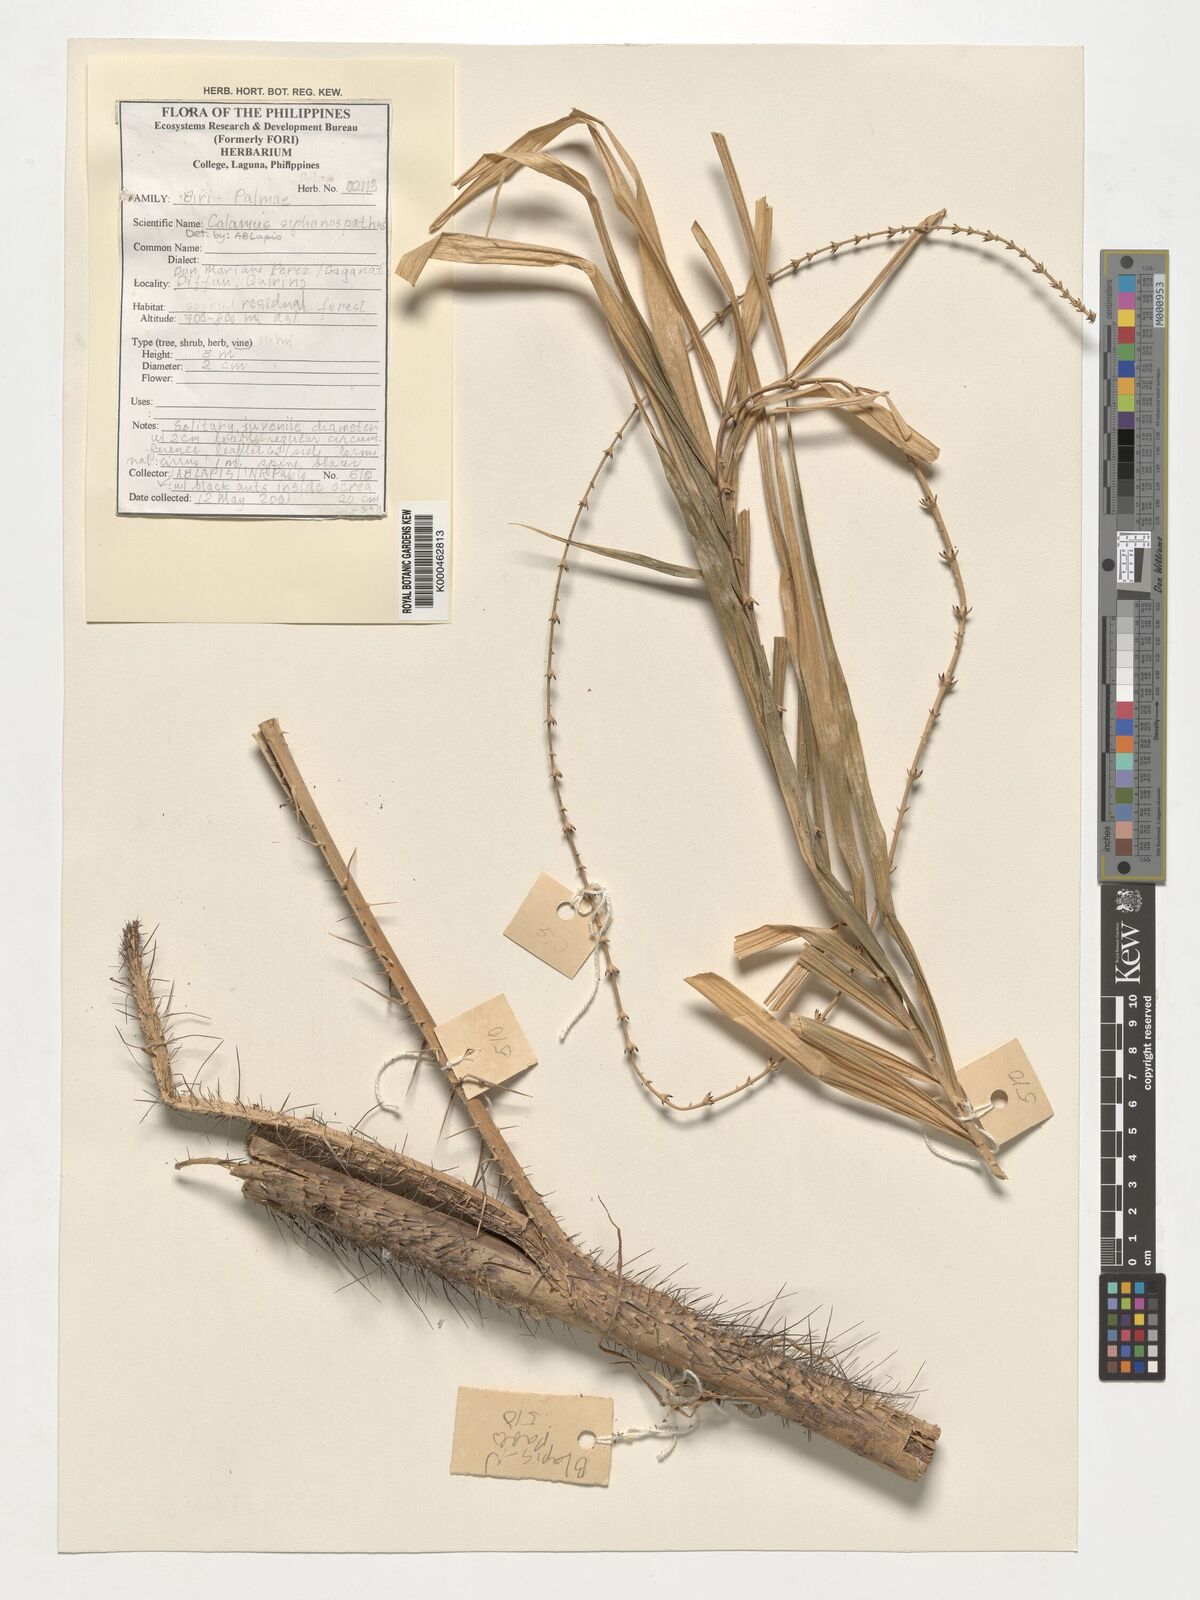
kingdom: Plantae
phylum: Tracheophyta
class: Liliopsida
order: Arecales
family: Arecaceae
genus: Calamus
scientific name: Calamus
